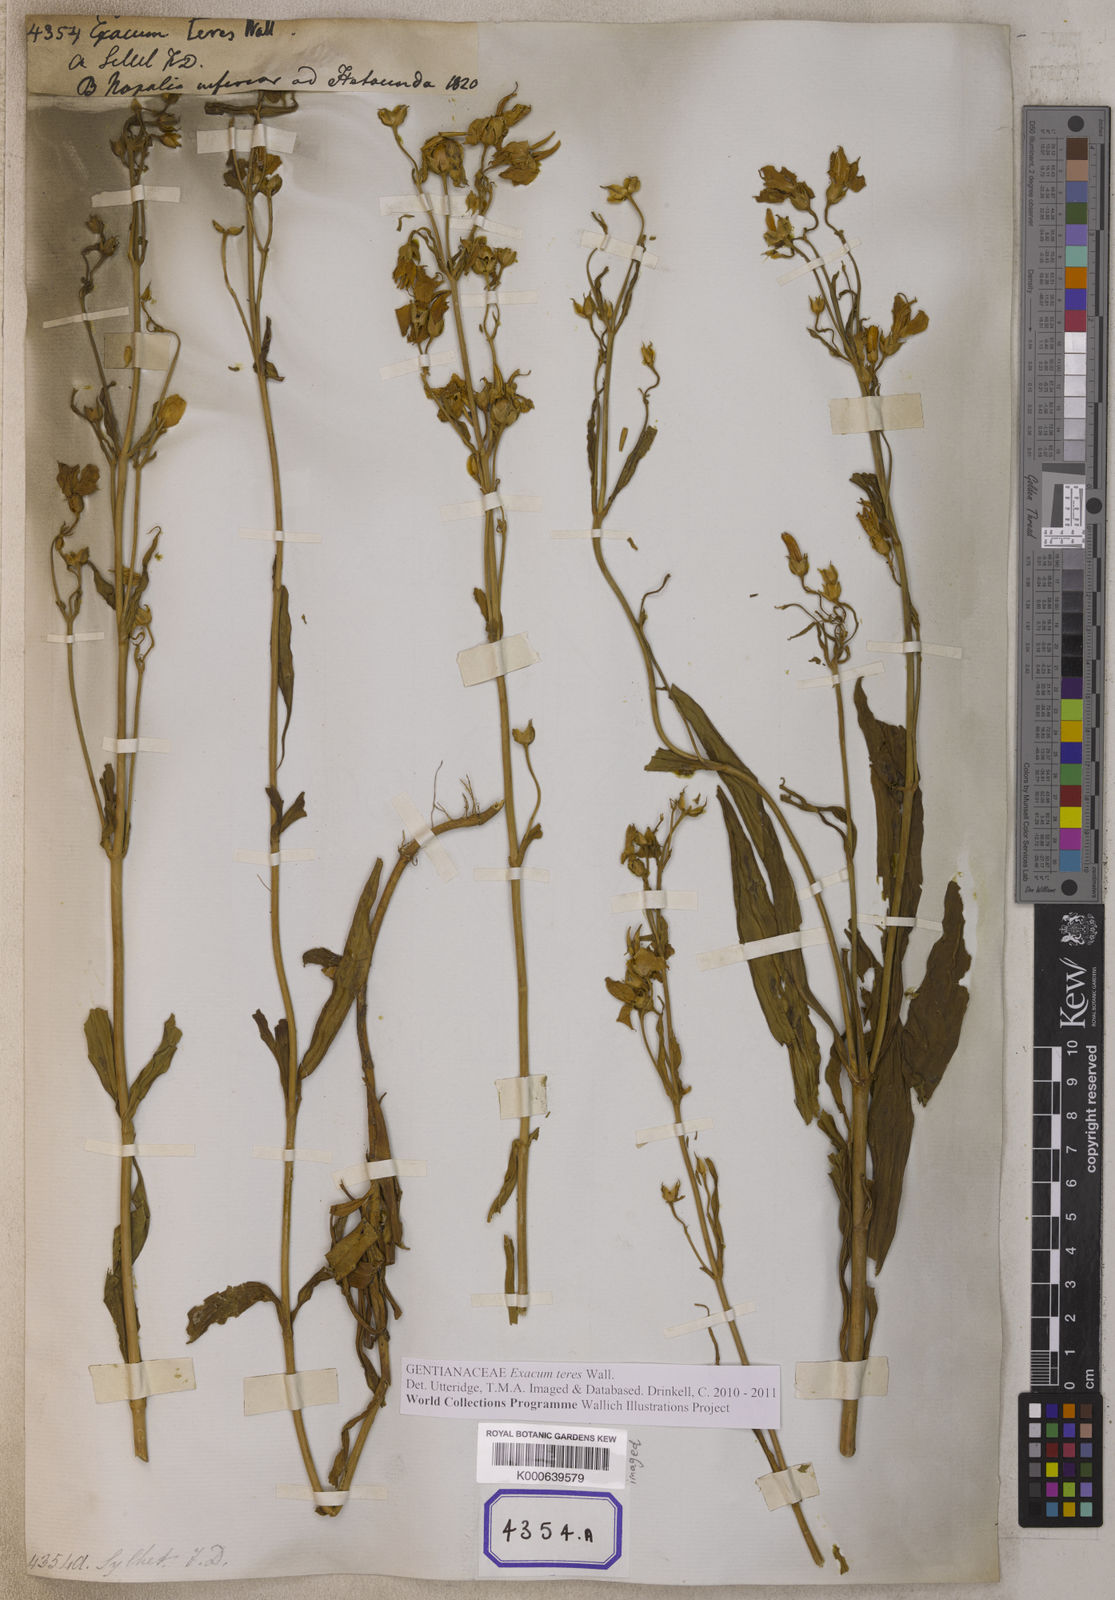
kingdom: Plantae
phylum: Tracheophyta
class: Magnoliopsida
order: Gentianales
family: Gentianaceae
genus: Exacum
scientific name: Exacum teres
